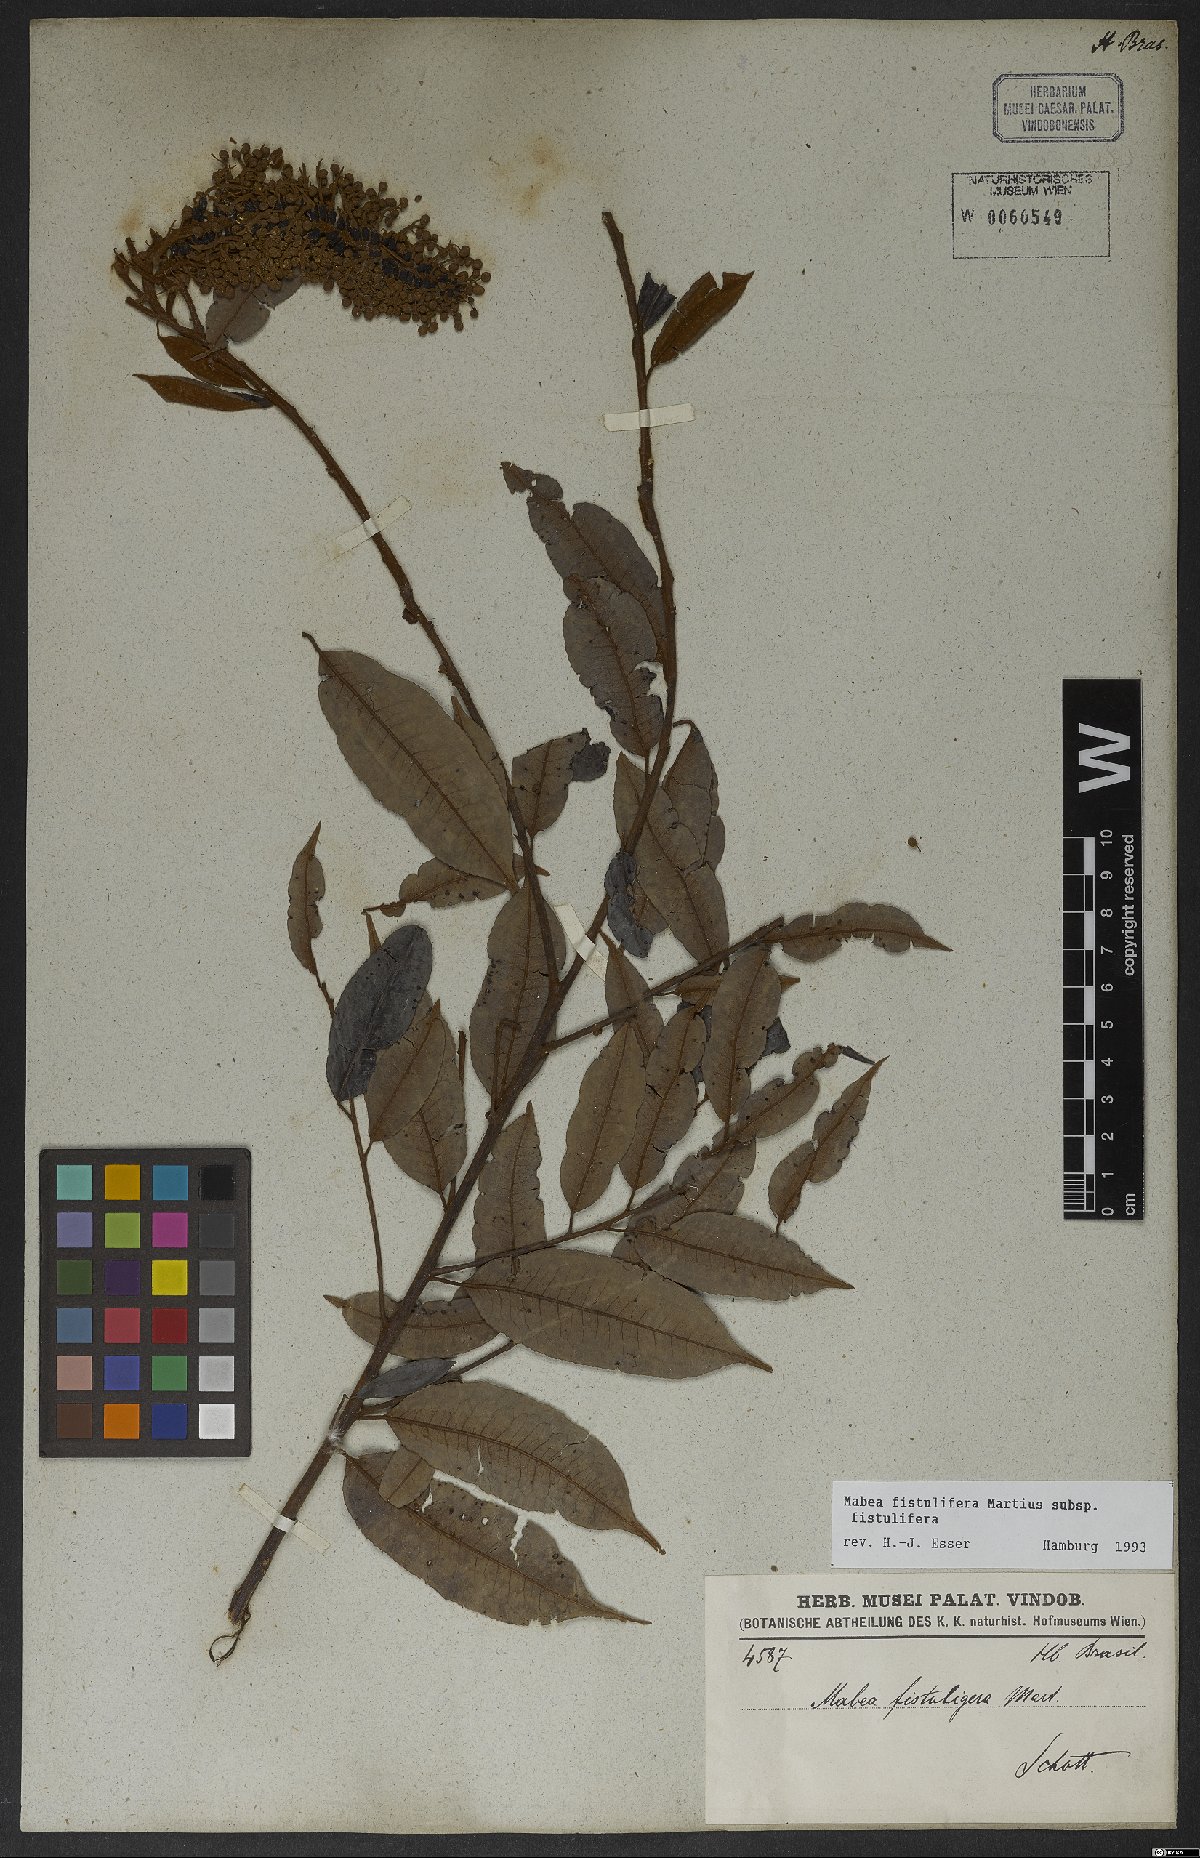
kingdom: Plantae
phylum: Tracheophyta
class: Magnoliopsida
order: Malpighiales
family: Euphorbiaceae
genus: Mabea
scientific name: Mabea fistulifera
